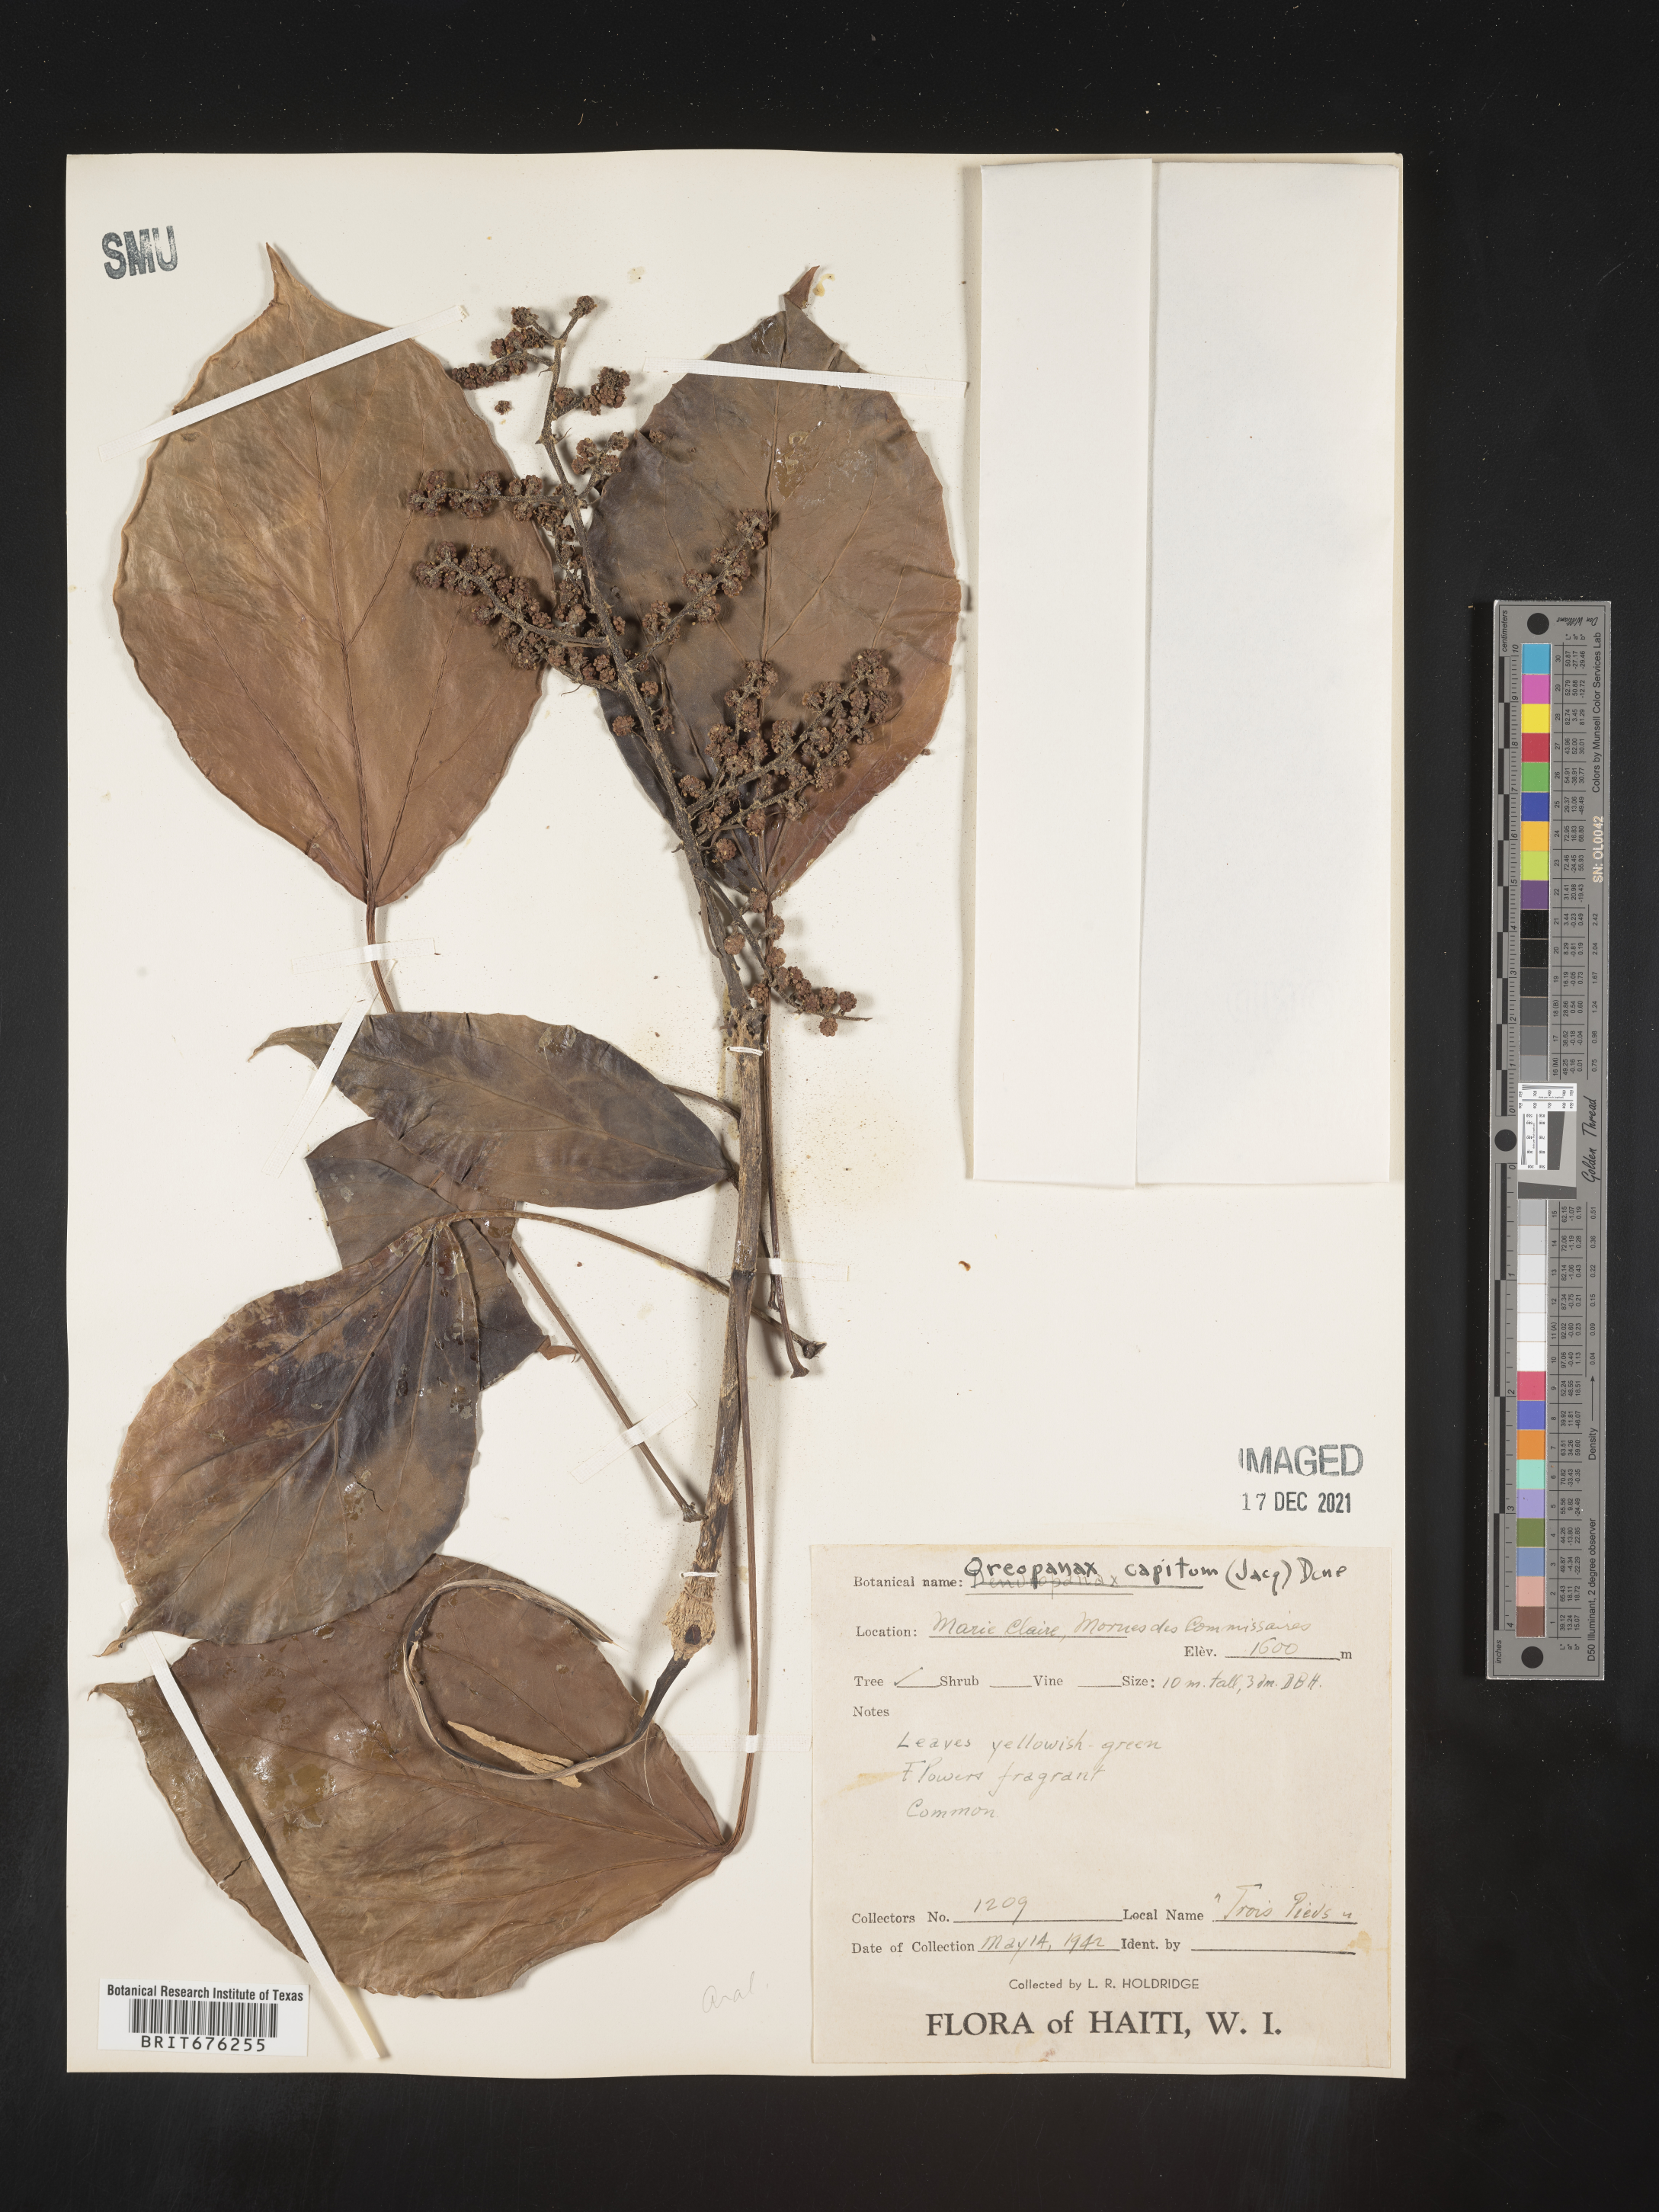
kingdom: Plantae
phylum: Tracheophyta
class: Magnoliopsida
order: Apiales
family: Araliaceae
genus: Oreopanax
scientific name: Oreopanax
